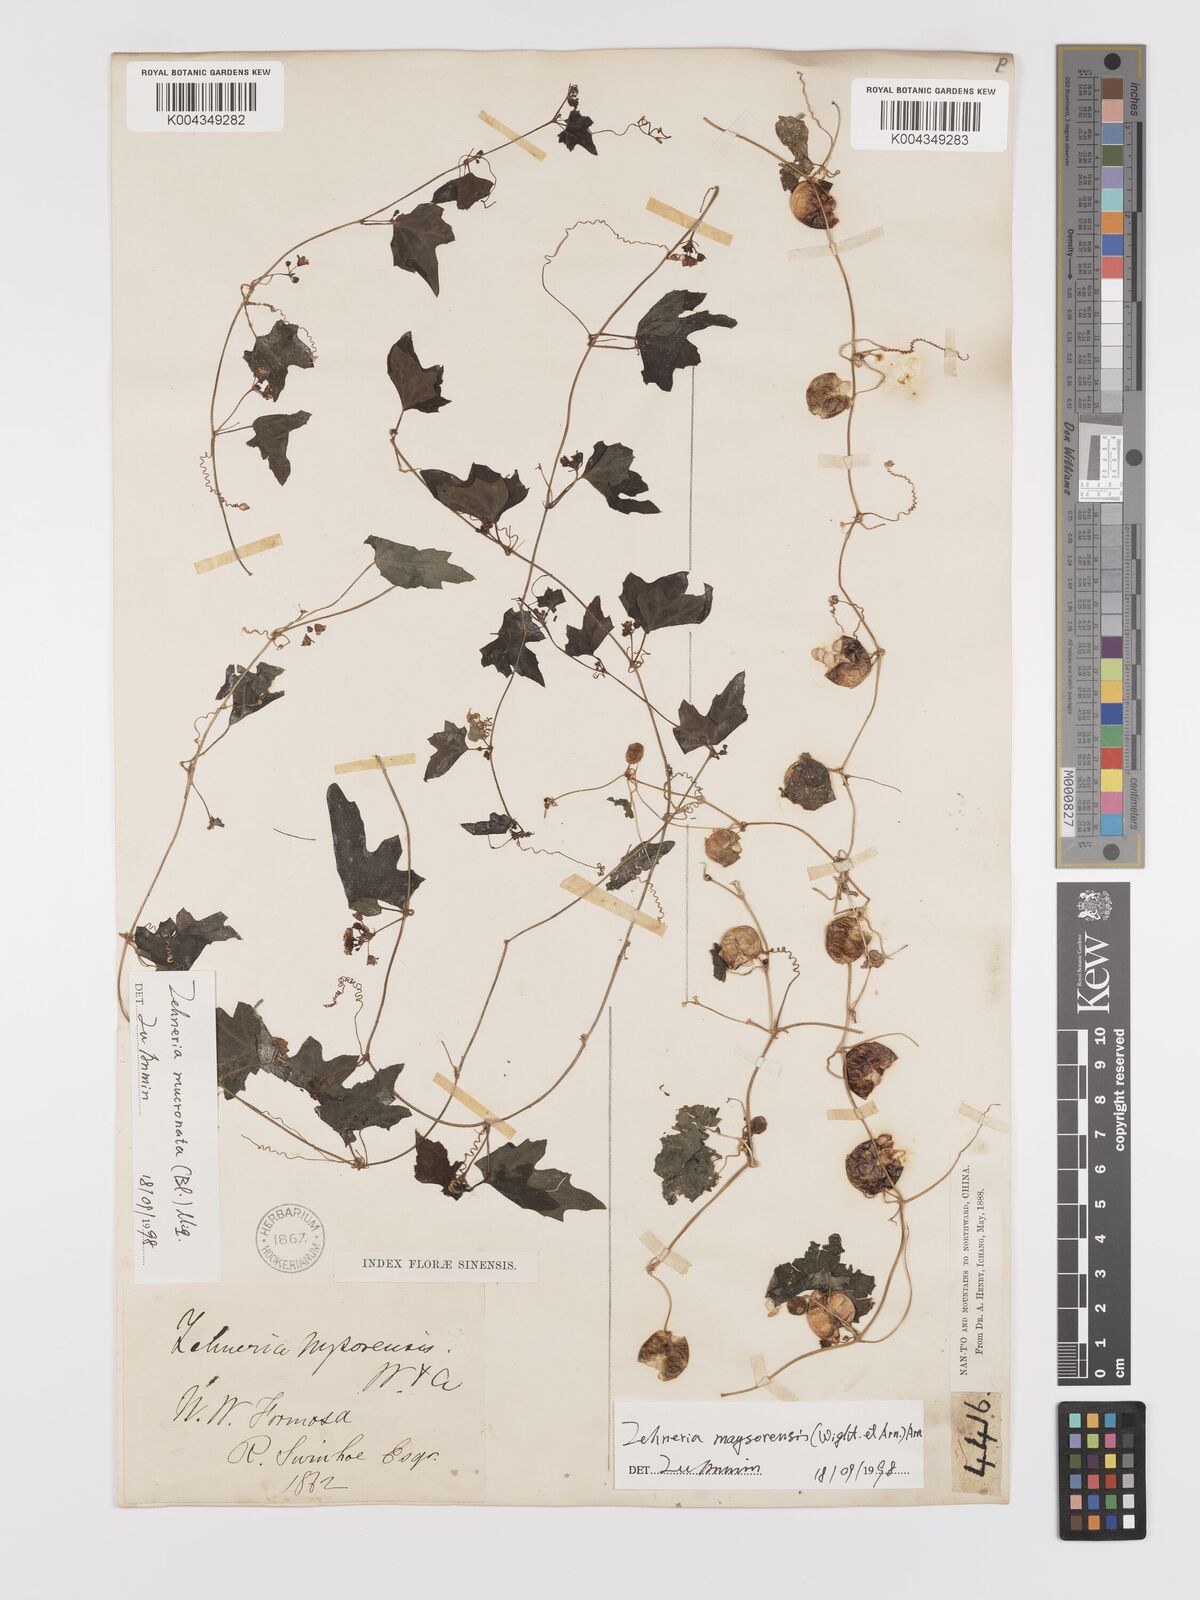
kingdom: Plantae
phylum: Tracheophyta
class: Magnoliopsida
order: Cucurbitales
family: Cucurbitaceae
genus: Zehneria
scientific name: Zehneria mucronata
